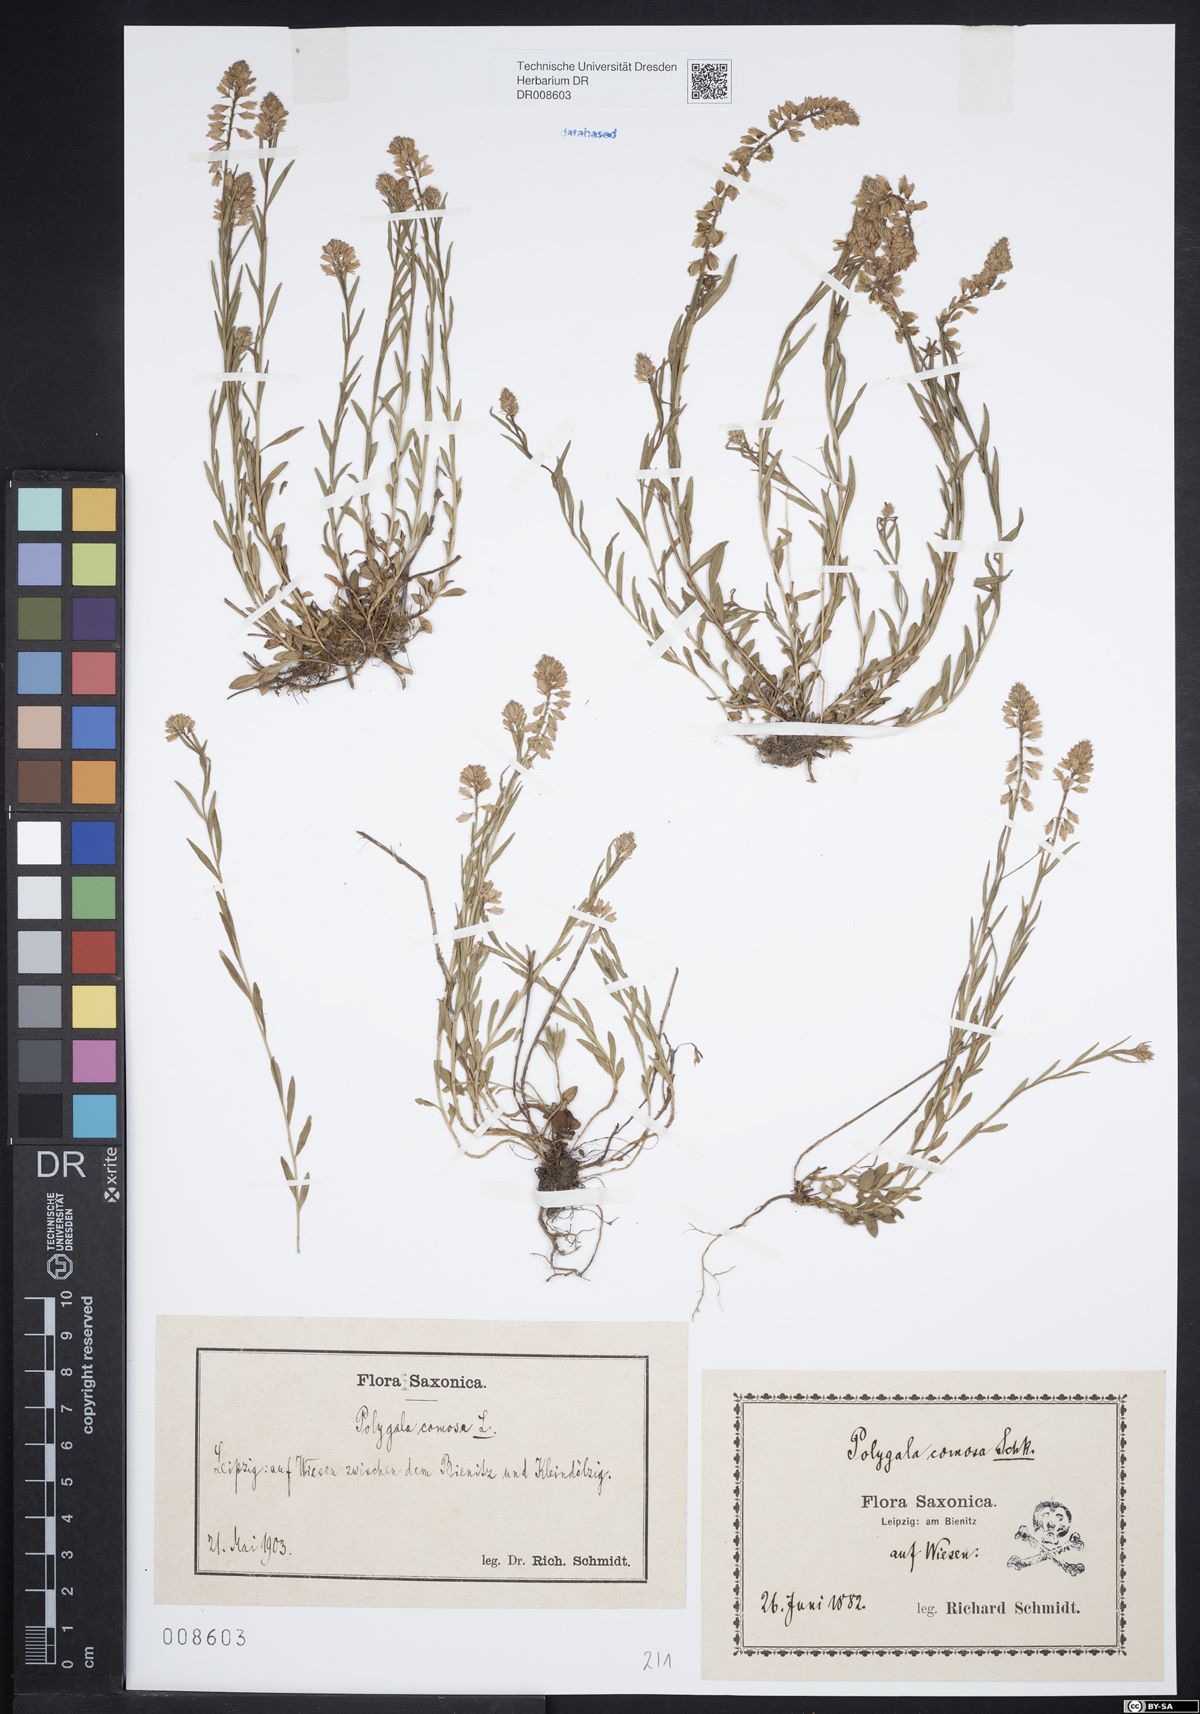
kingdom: Plantae
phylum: Tracheophyta
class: Magnoliopsida
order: Fabales
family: Polygalaceae
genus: Polygala
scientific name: Polygala comosa
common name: Tufted milkwort
